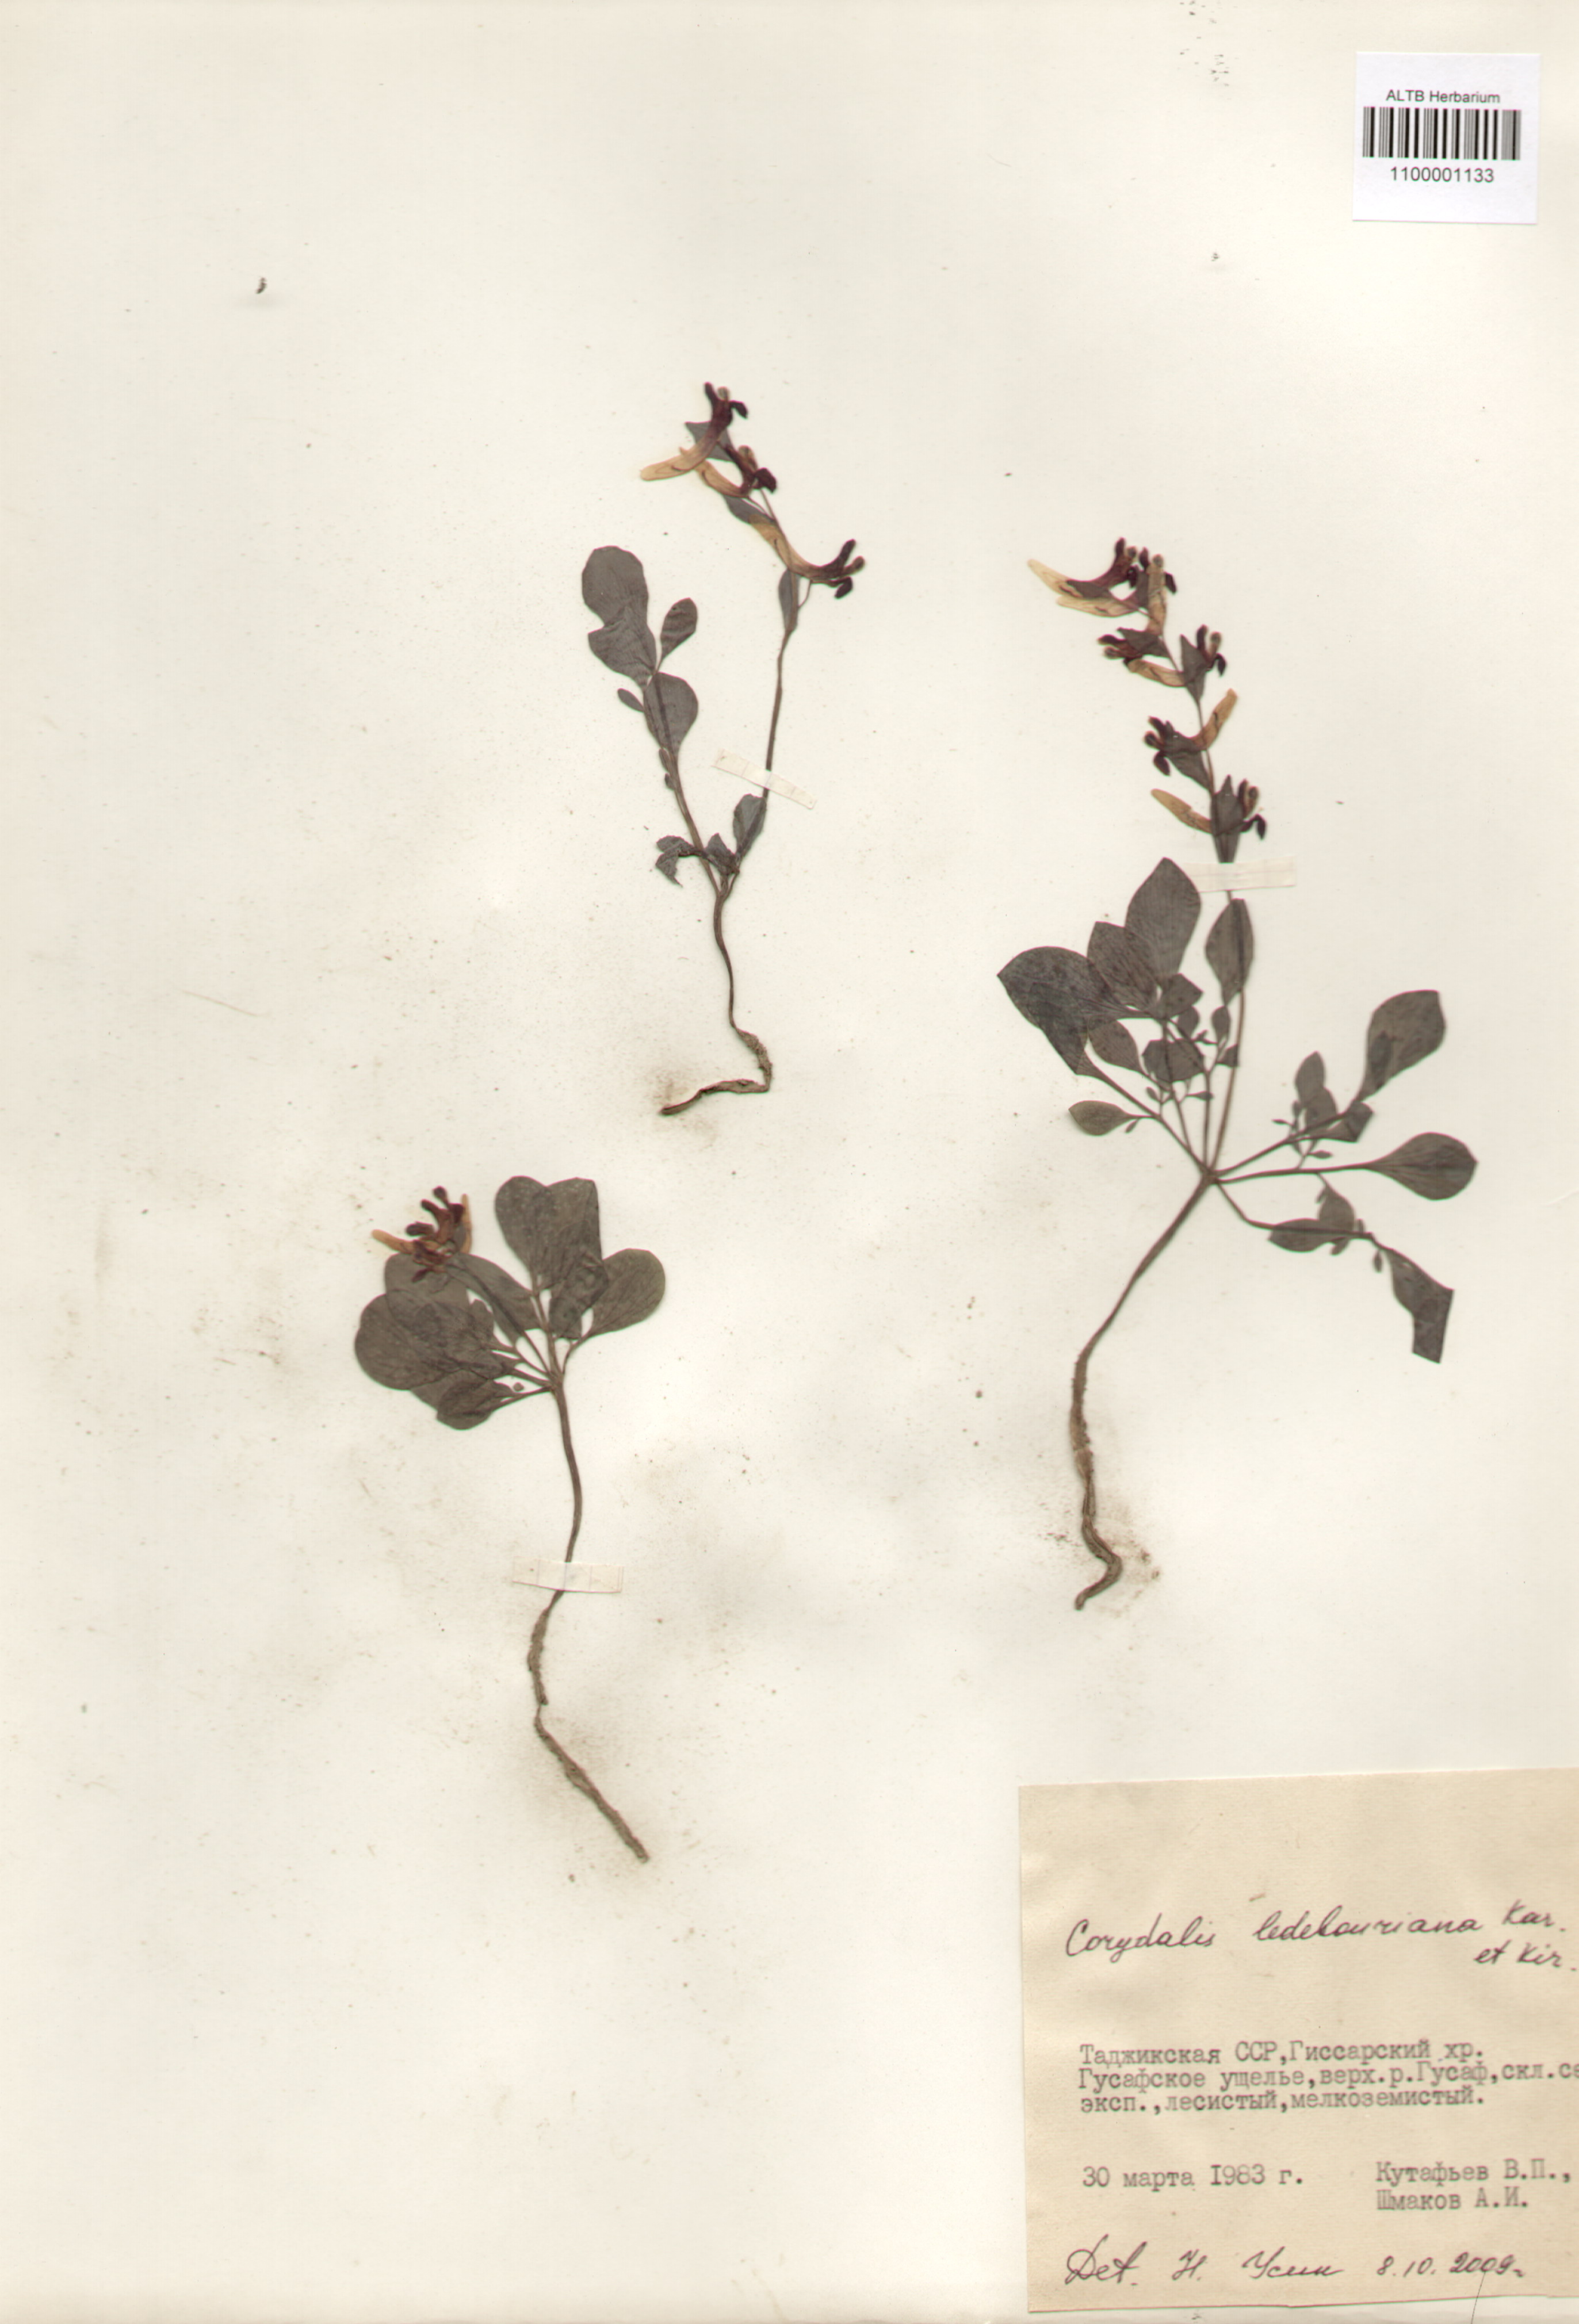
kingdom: Plantae
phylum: Tracheophyta
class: Magnoliopsida
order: Ranunculales
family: Papaveraceae
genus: Corydalis
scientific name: Corydalis ledebouriana
